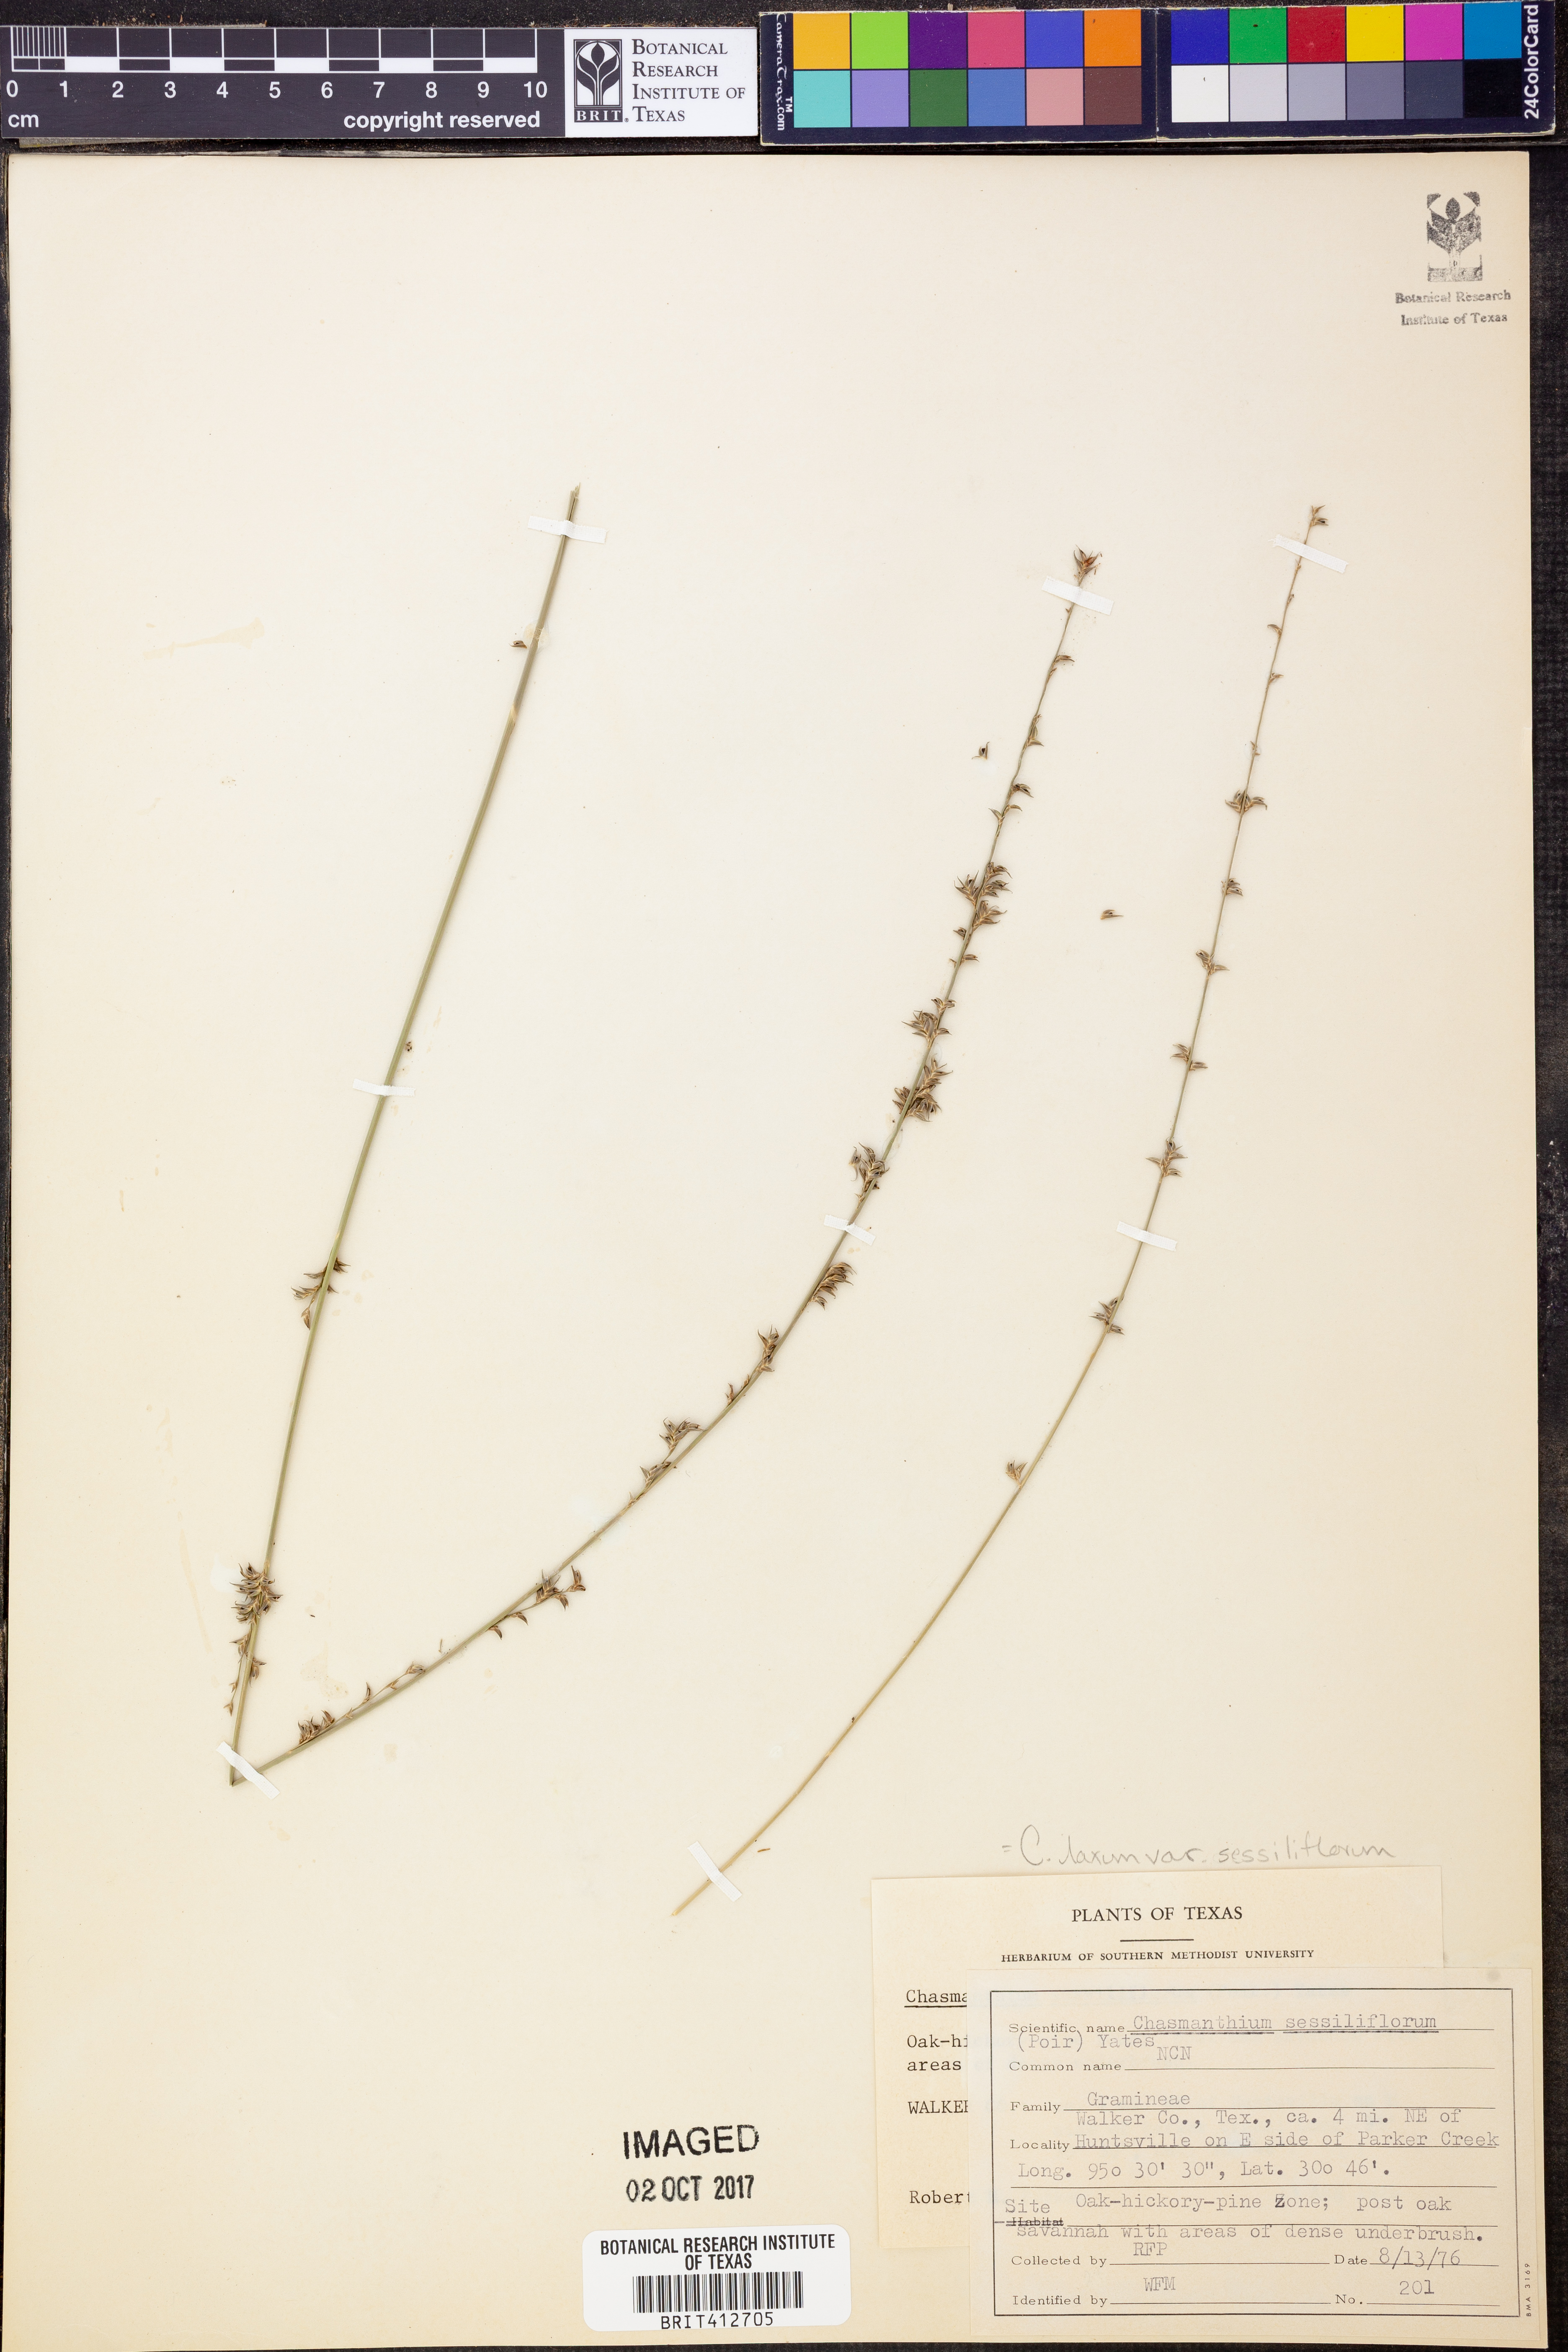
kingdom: Plantae
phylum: Tracheophyta
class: Liliopsida
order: Poales
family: Poaceae
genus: Chasmanthium
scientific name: Chasmanthium laxum
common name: Slender chasmanthium
